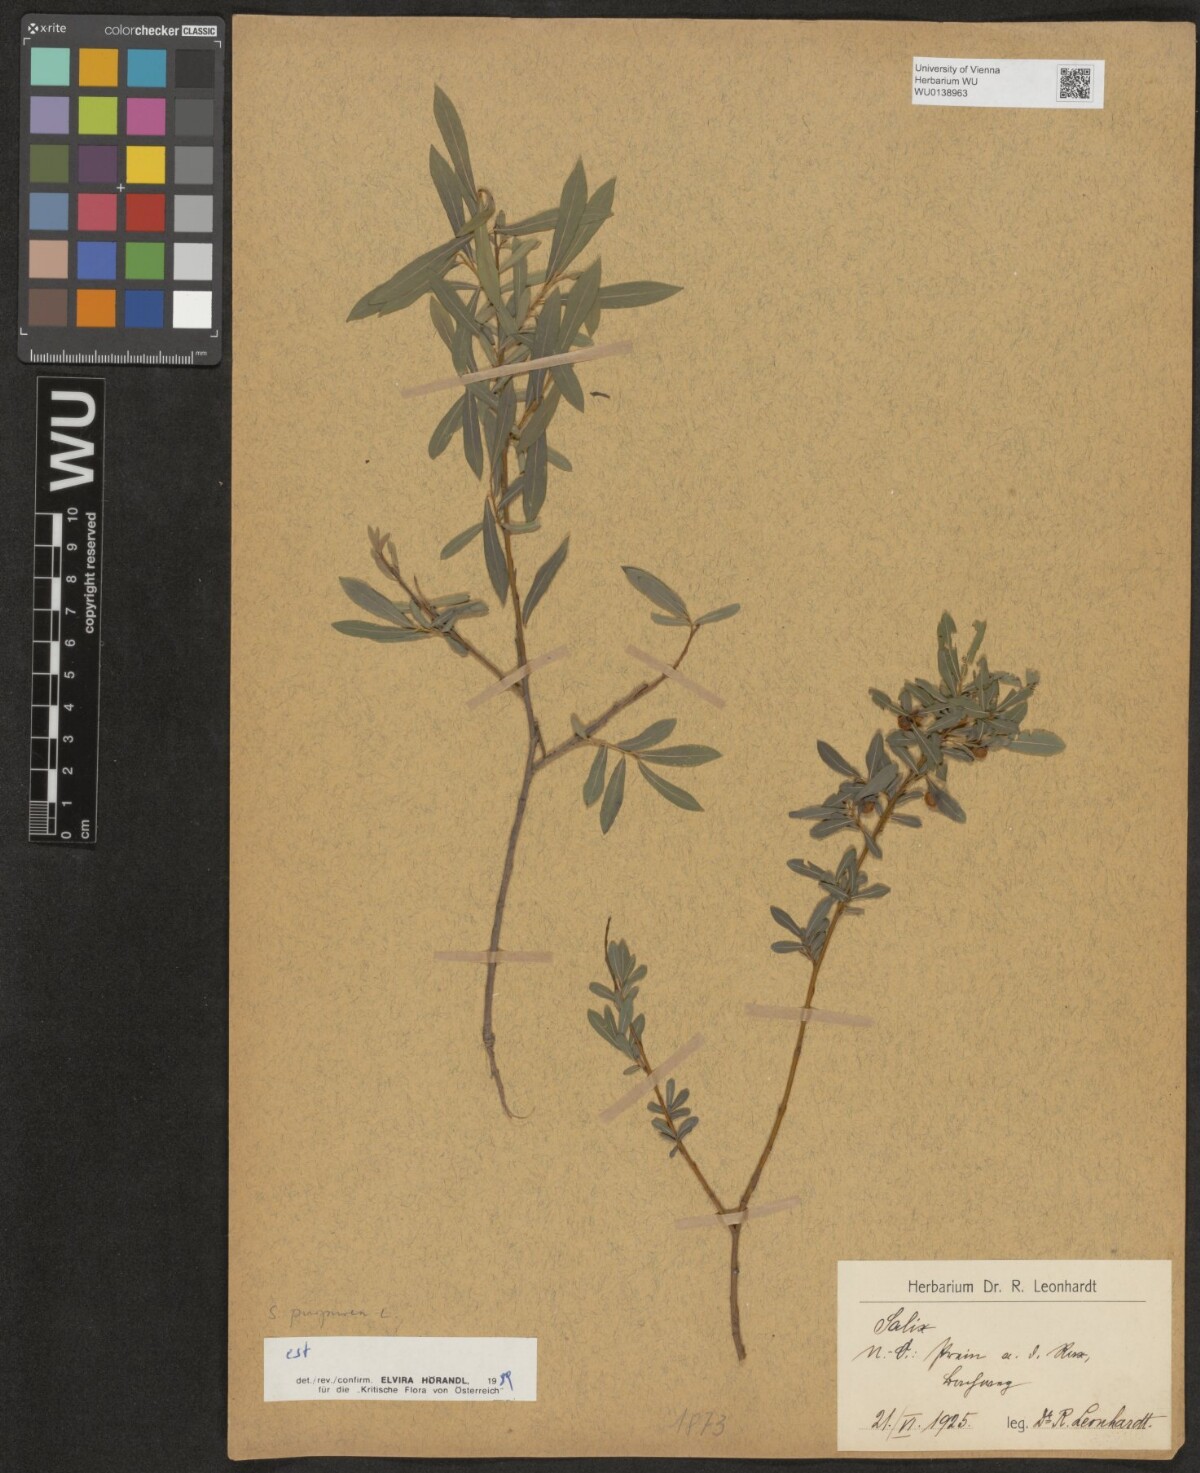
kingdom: Plantae
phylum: Tracheophyta
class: Magnoliopsida
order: Malpighiales
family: Salicaceae
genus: Salix
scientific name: Salix purpurea
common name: Purple willow
